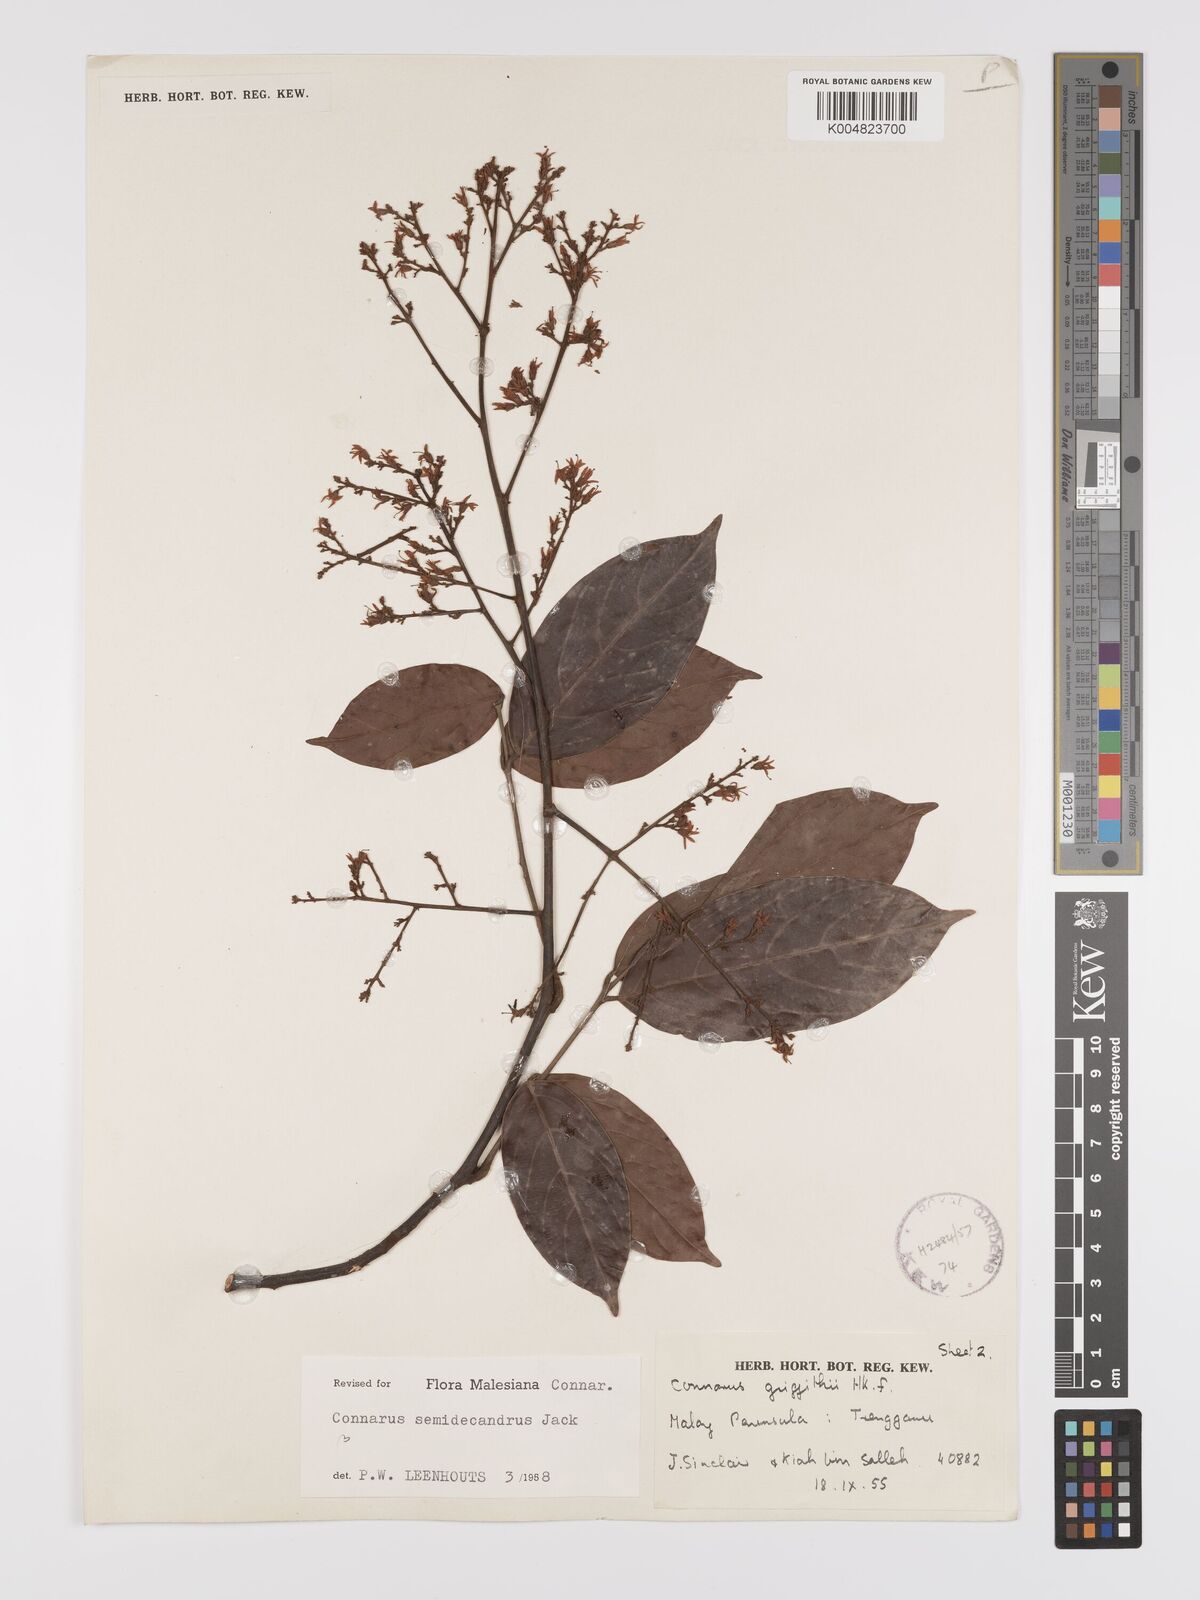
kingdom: Plantae
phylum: Tracheophyta
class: Magnoliopsida
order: Oxalidales
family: Connaraceae
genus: Connarus
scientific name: Connarus semidecandrus
